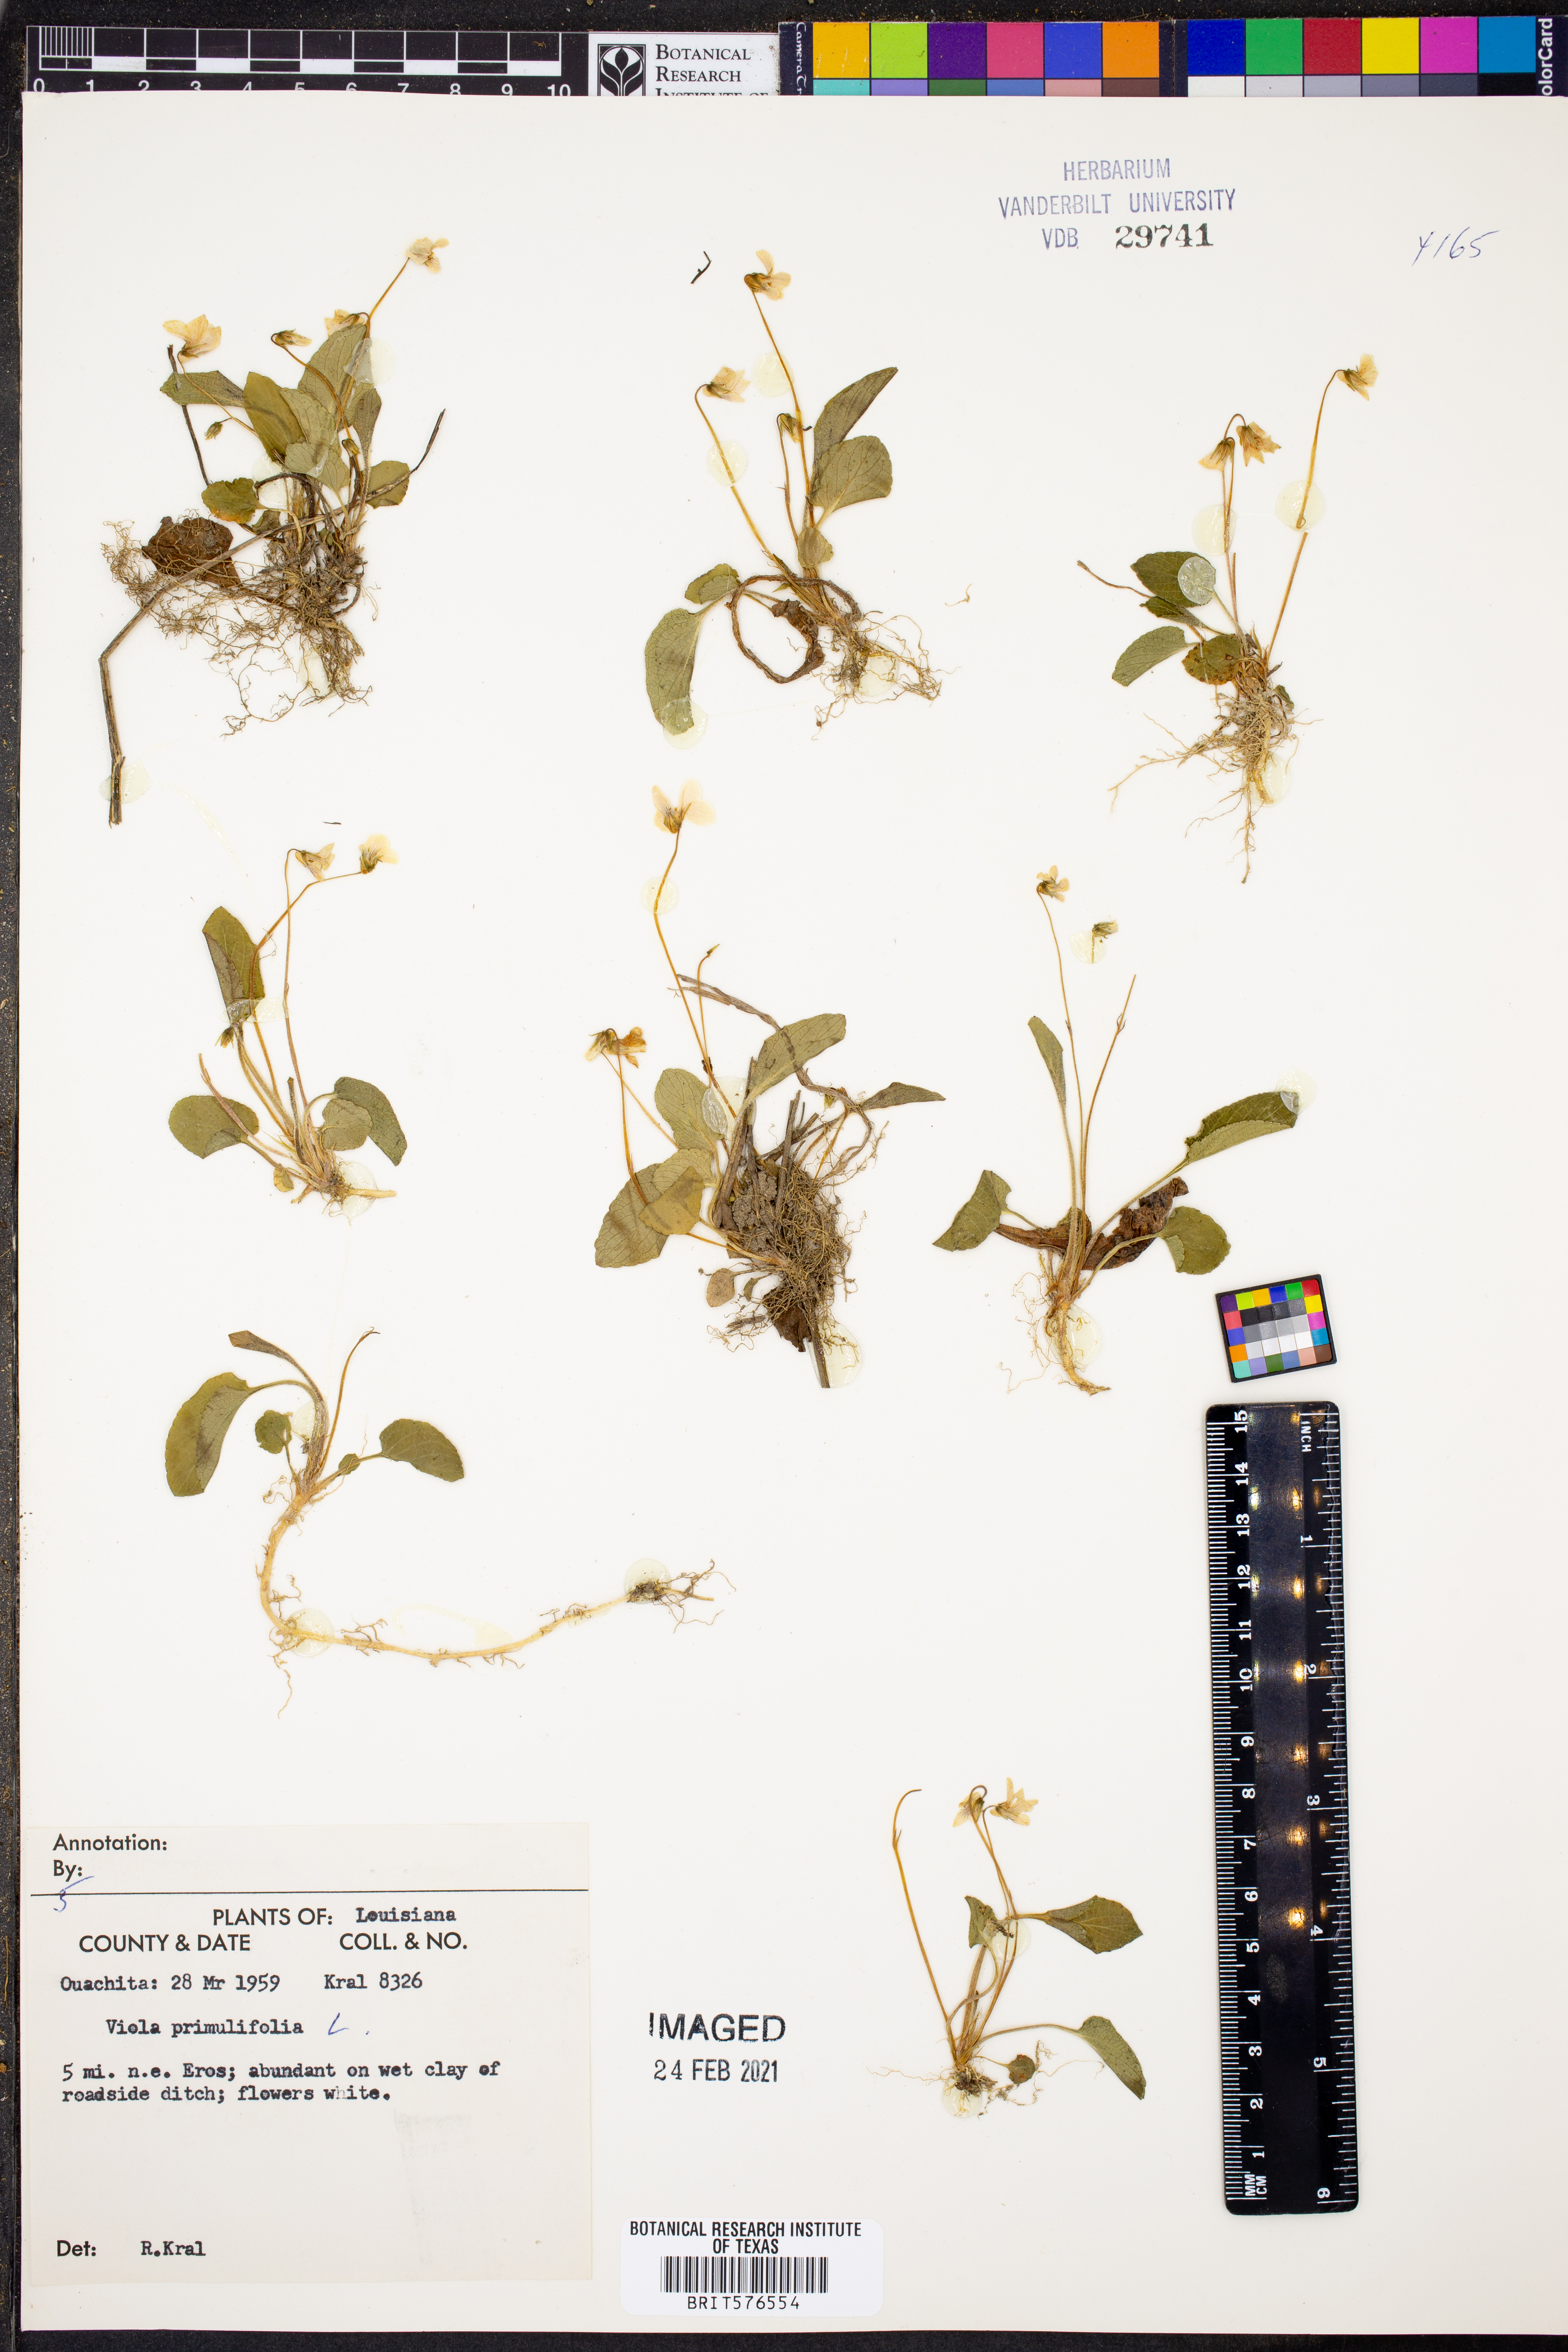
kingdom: Plantae
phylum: Tracheophyta
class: Magnoliopsida
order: Malpighiales
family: Violaceae
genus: Viola
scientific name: Viola primulifolia
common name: Primrose-leaf violet
